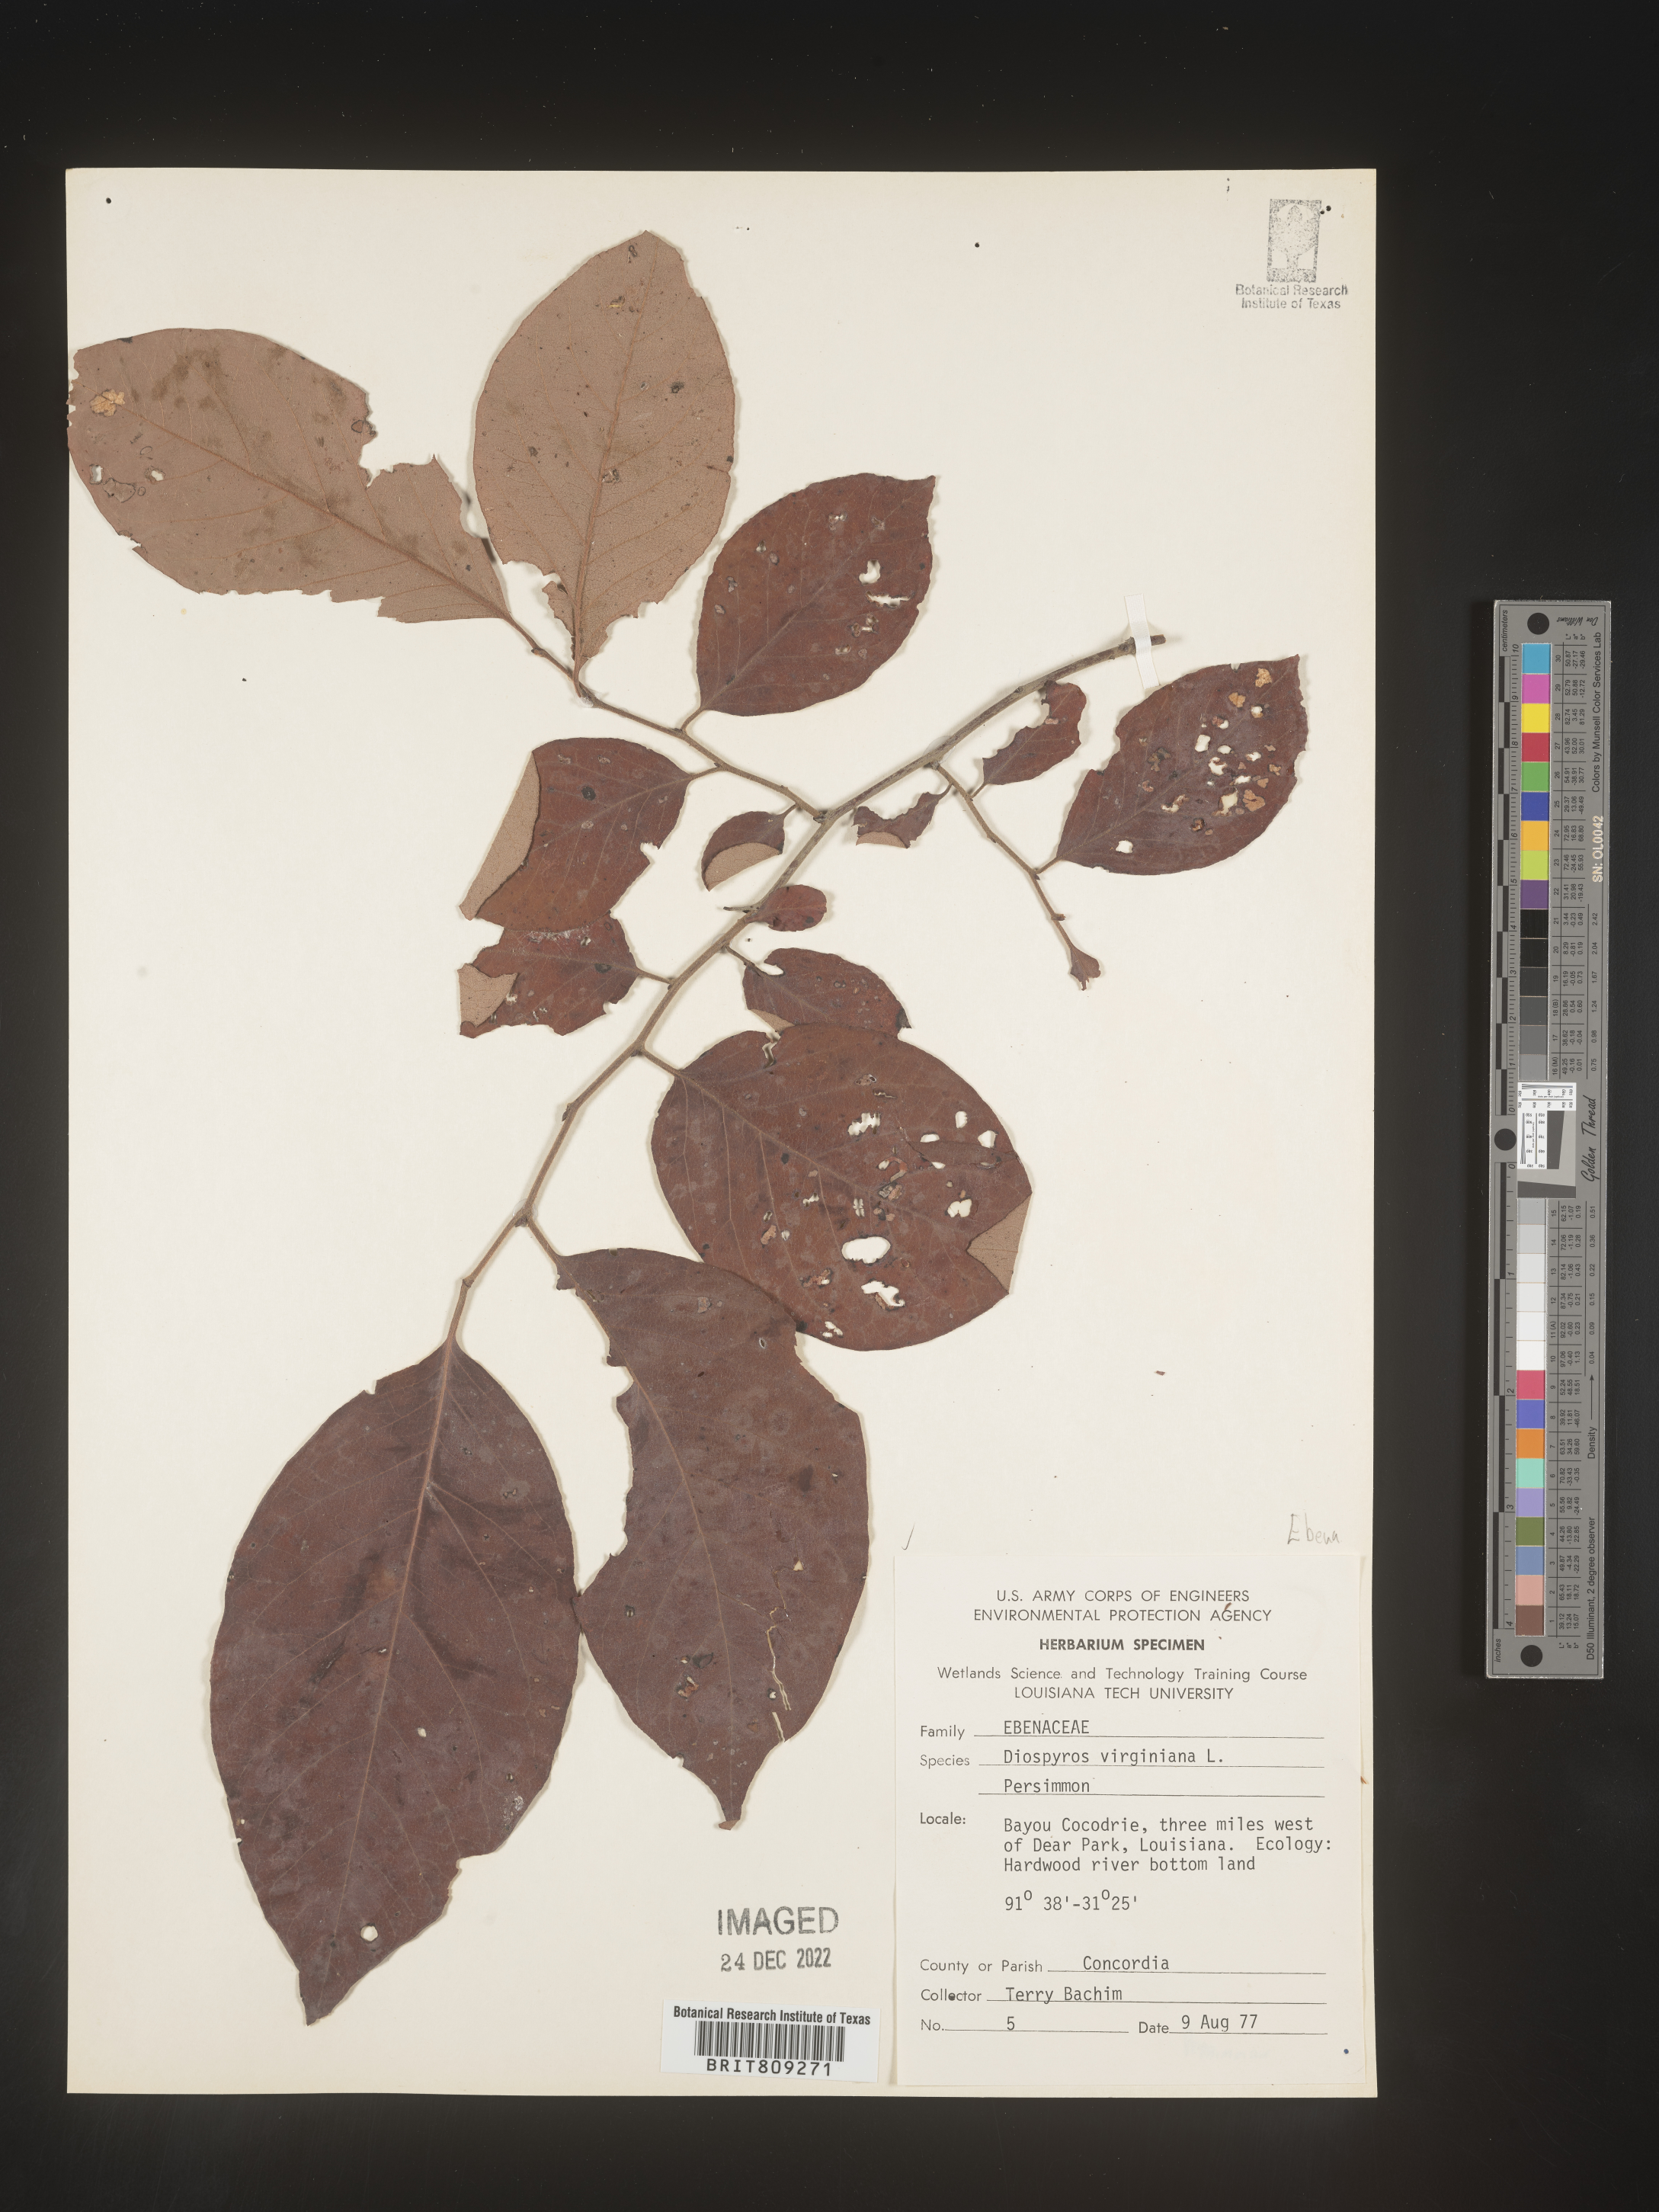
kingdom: Plantae
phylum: Tracheophyta
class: Magnoliopsida
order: Ericales
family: Ebenaceae
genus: Diospyros
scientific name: Diospyros virginiana
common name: Persimmon
